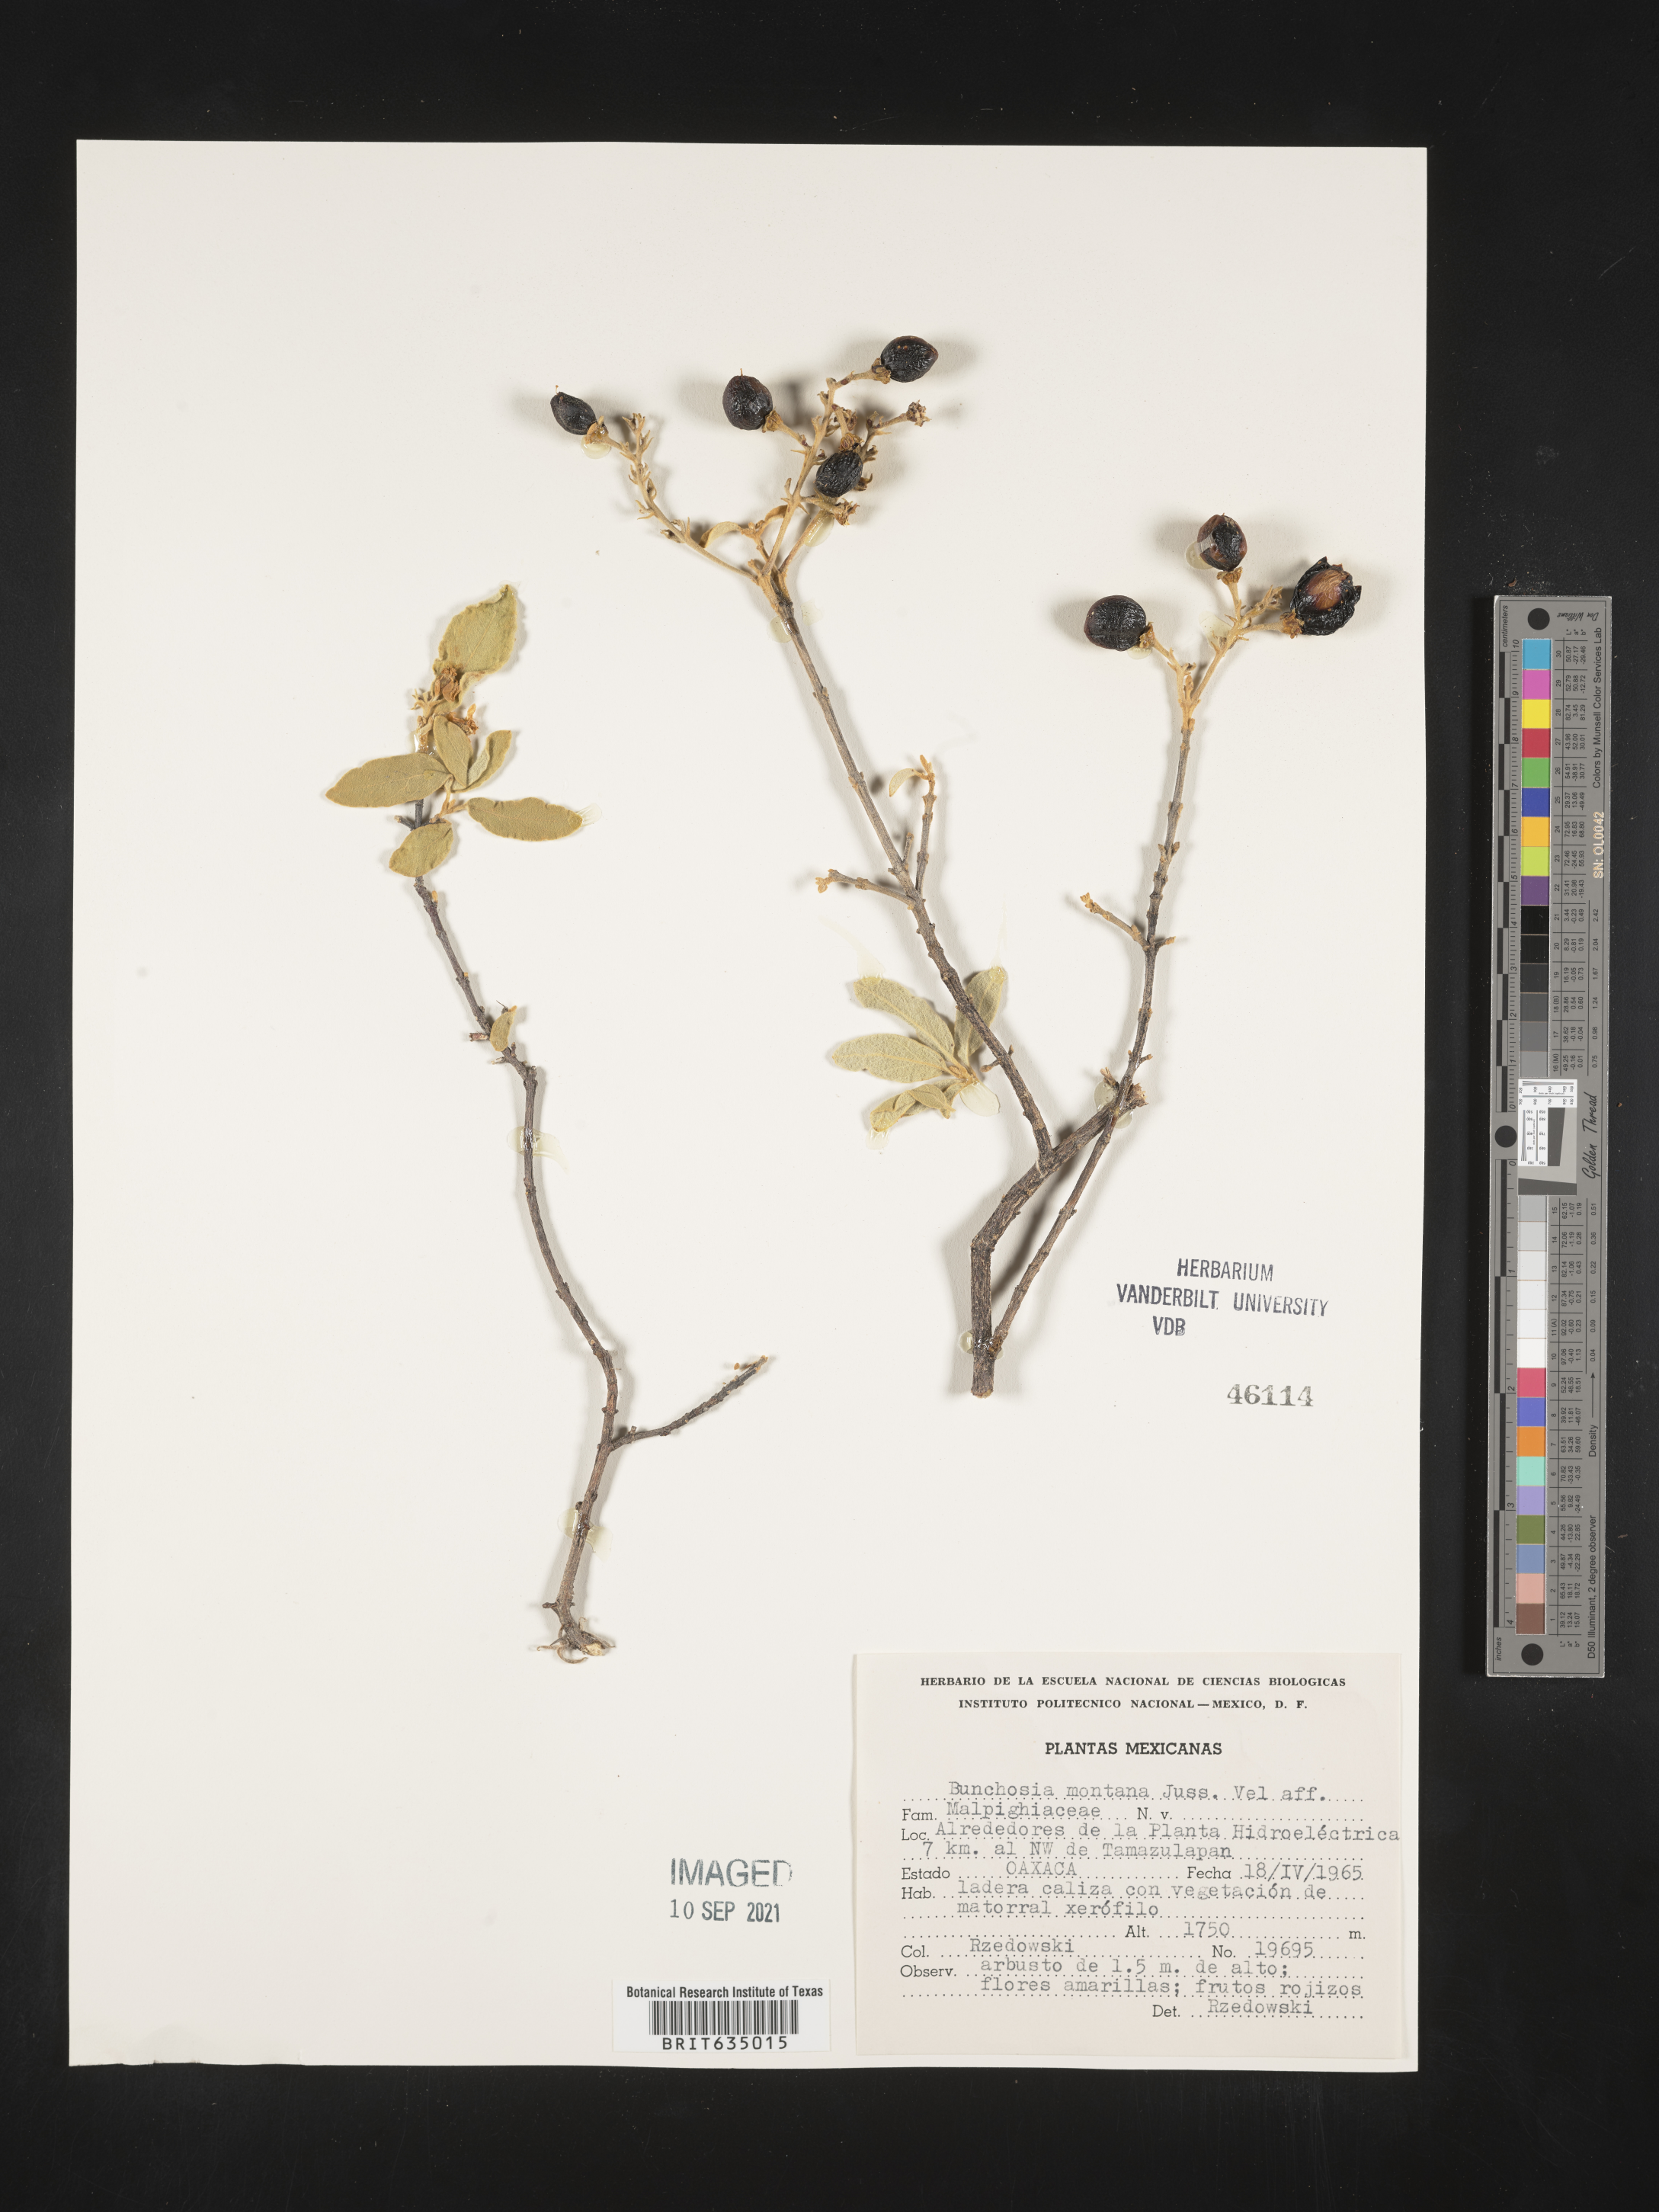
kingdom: Plantae
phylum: Tracheophyta
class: Magnoliopsida
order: Malpighiales
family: Malpighiaceae
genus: Bunchosia
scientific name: Bunchosia
